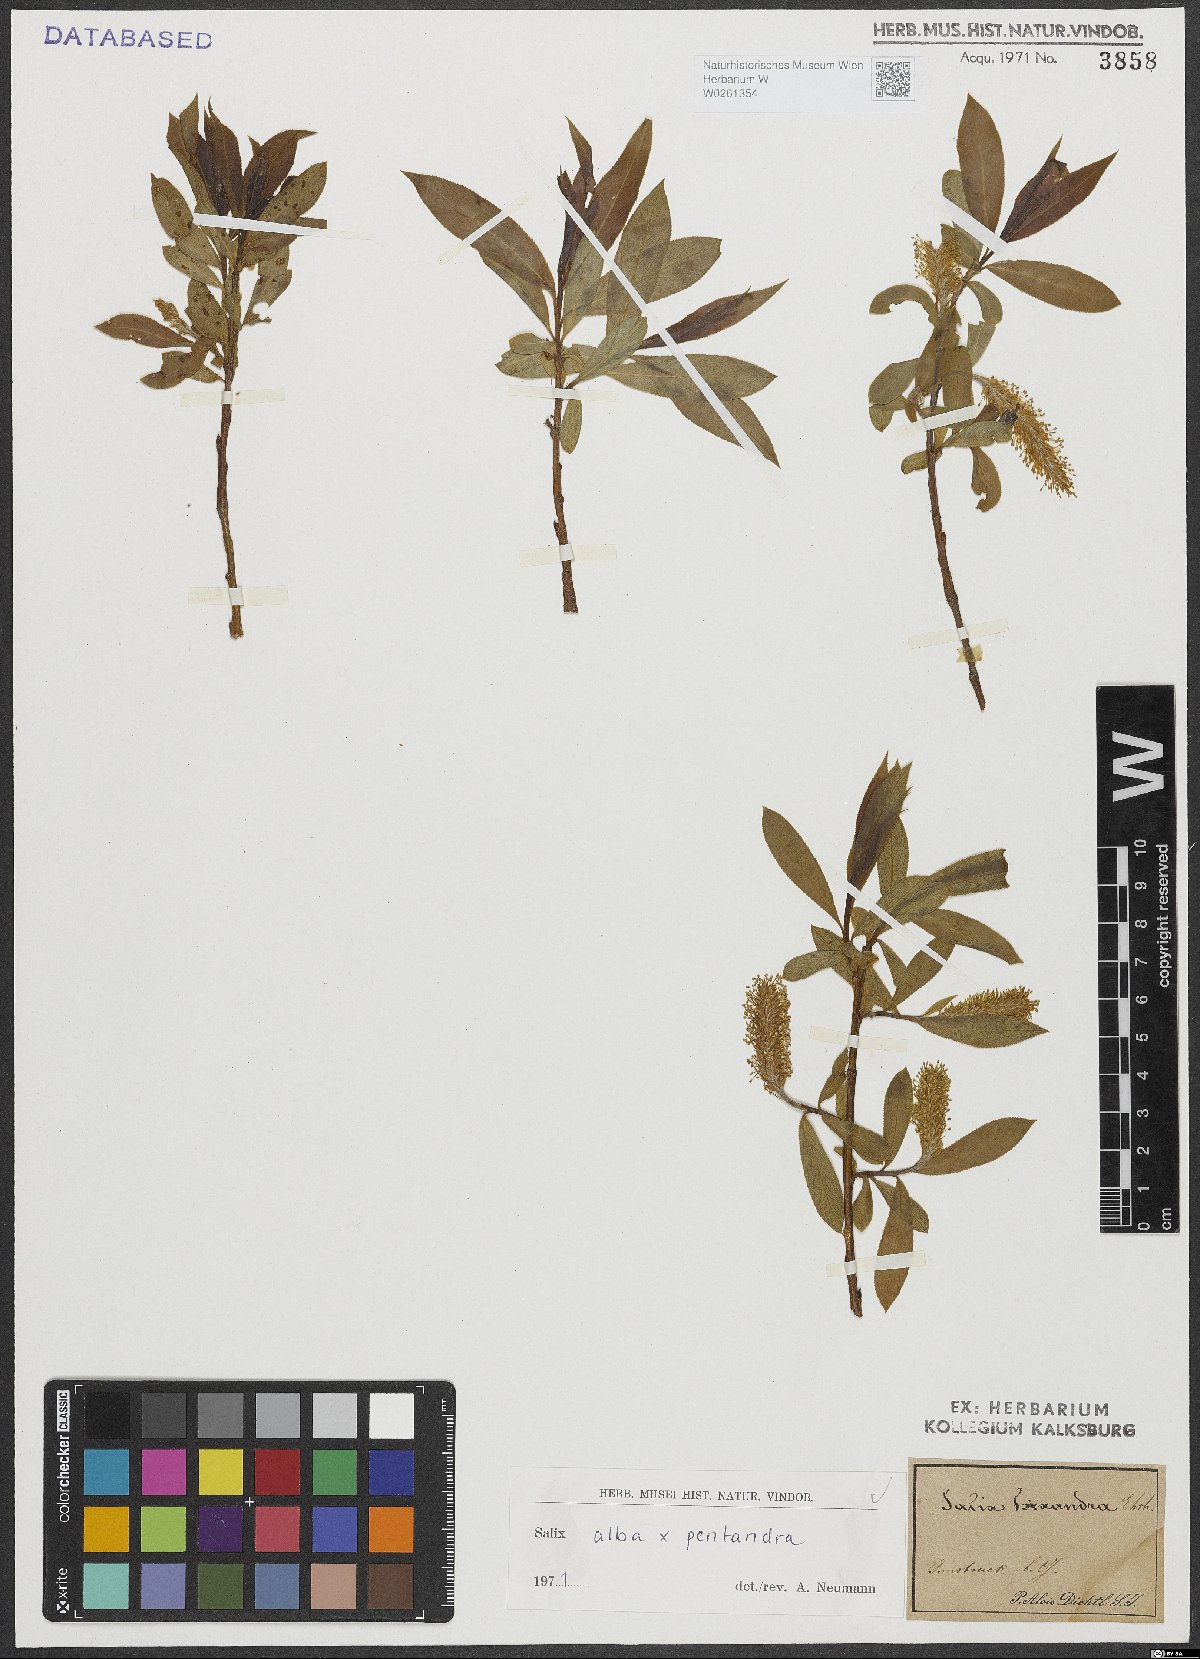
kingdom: Plantae
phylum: Tracheophyta
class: Magnoliopsida
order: Malpighiales
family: Salicaceae
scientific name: Salicaceae
